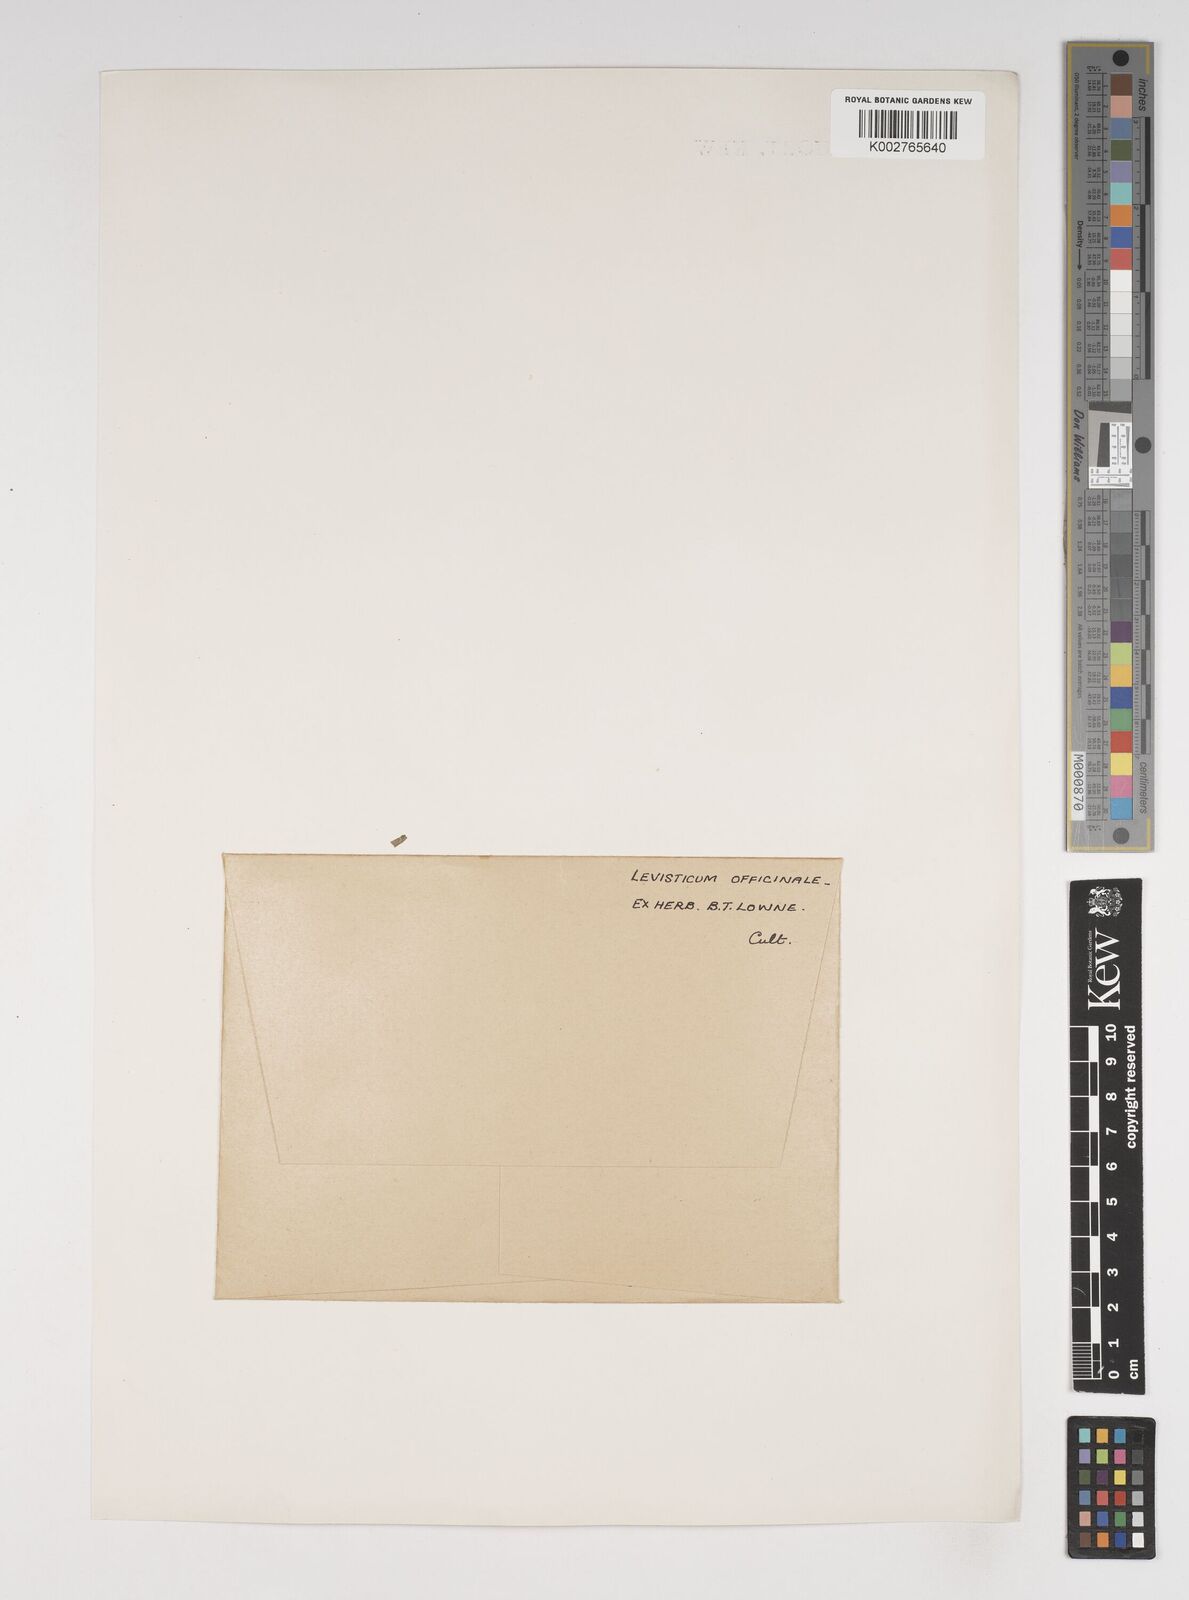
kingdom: Plantae
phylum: Tracheophyta
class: Magnoliopsida
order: Apiales
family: Apiaceae
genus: Levisticum
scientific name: Levisticum officinale
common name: Lovage
